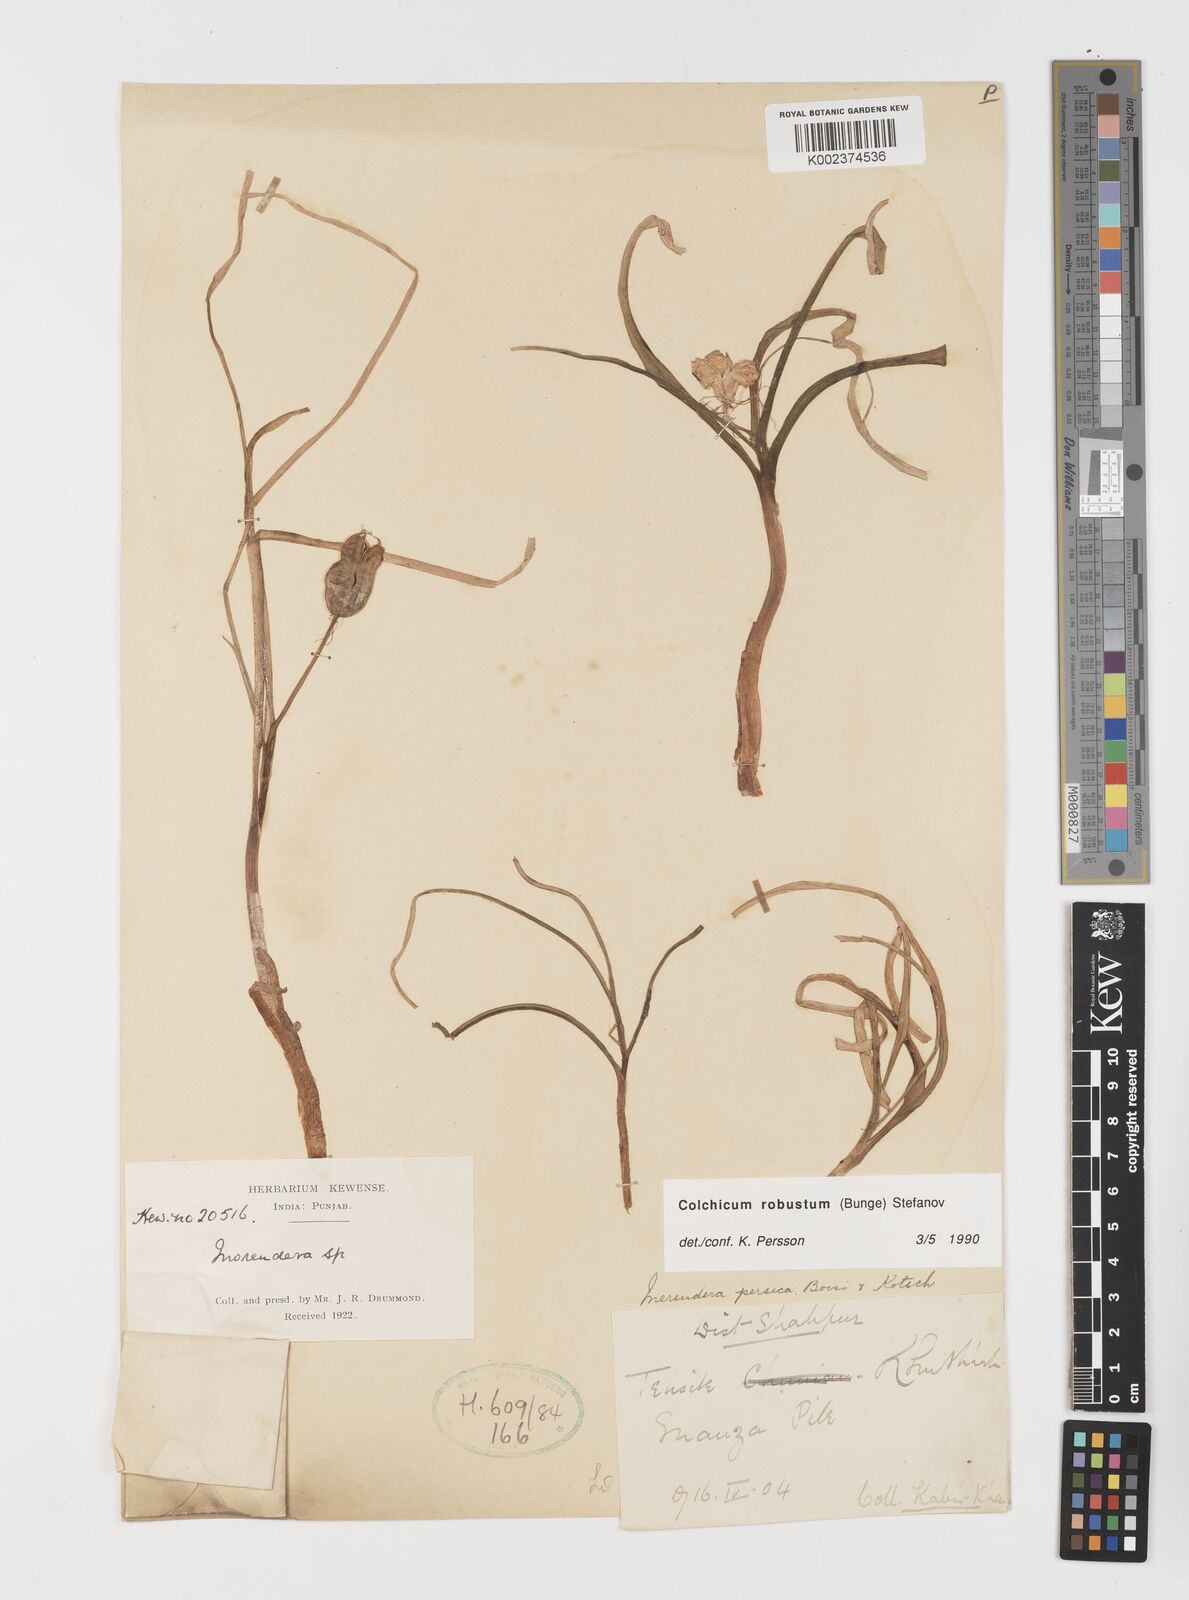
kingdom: Plantae
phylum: Tracheophyta
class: Liliopsida
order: Liliales
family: Colchicaceae
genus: Colchicum
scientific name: Colchicum robustum
